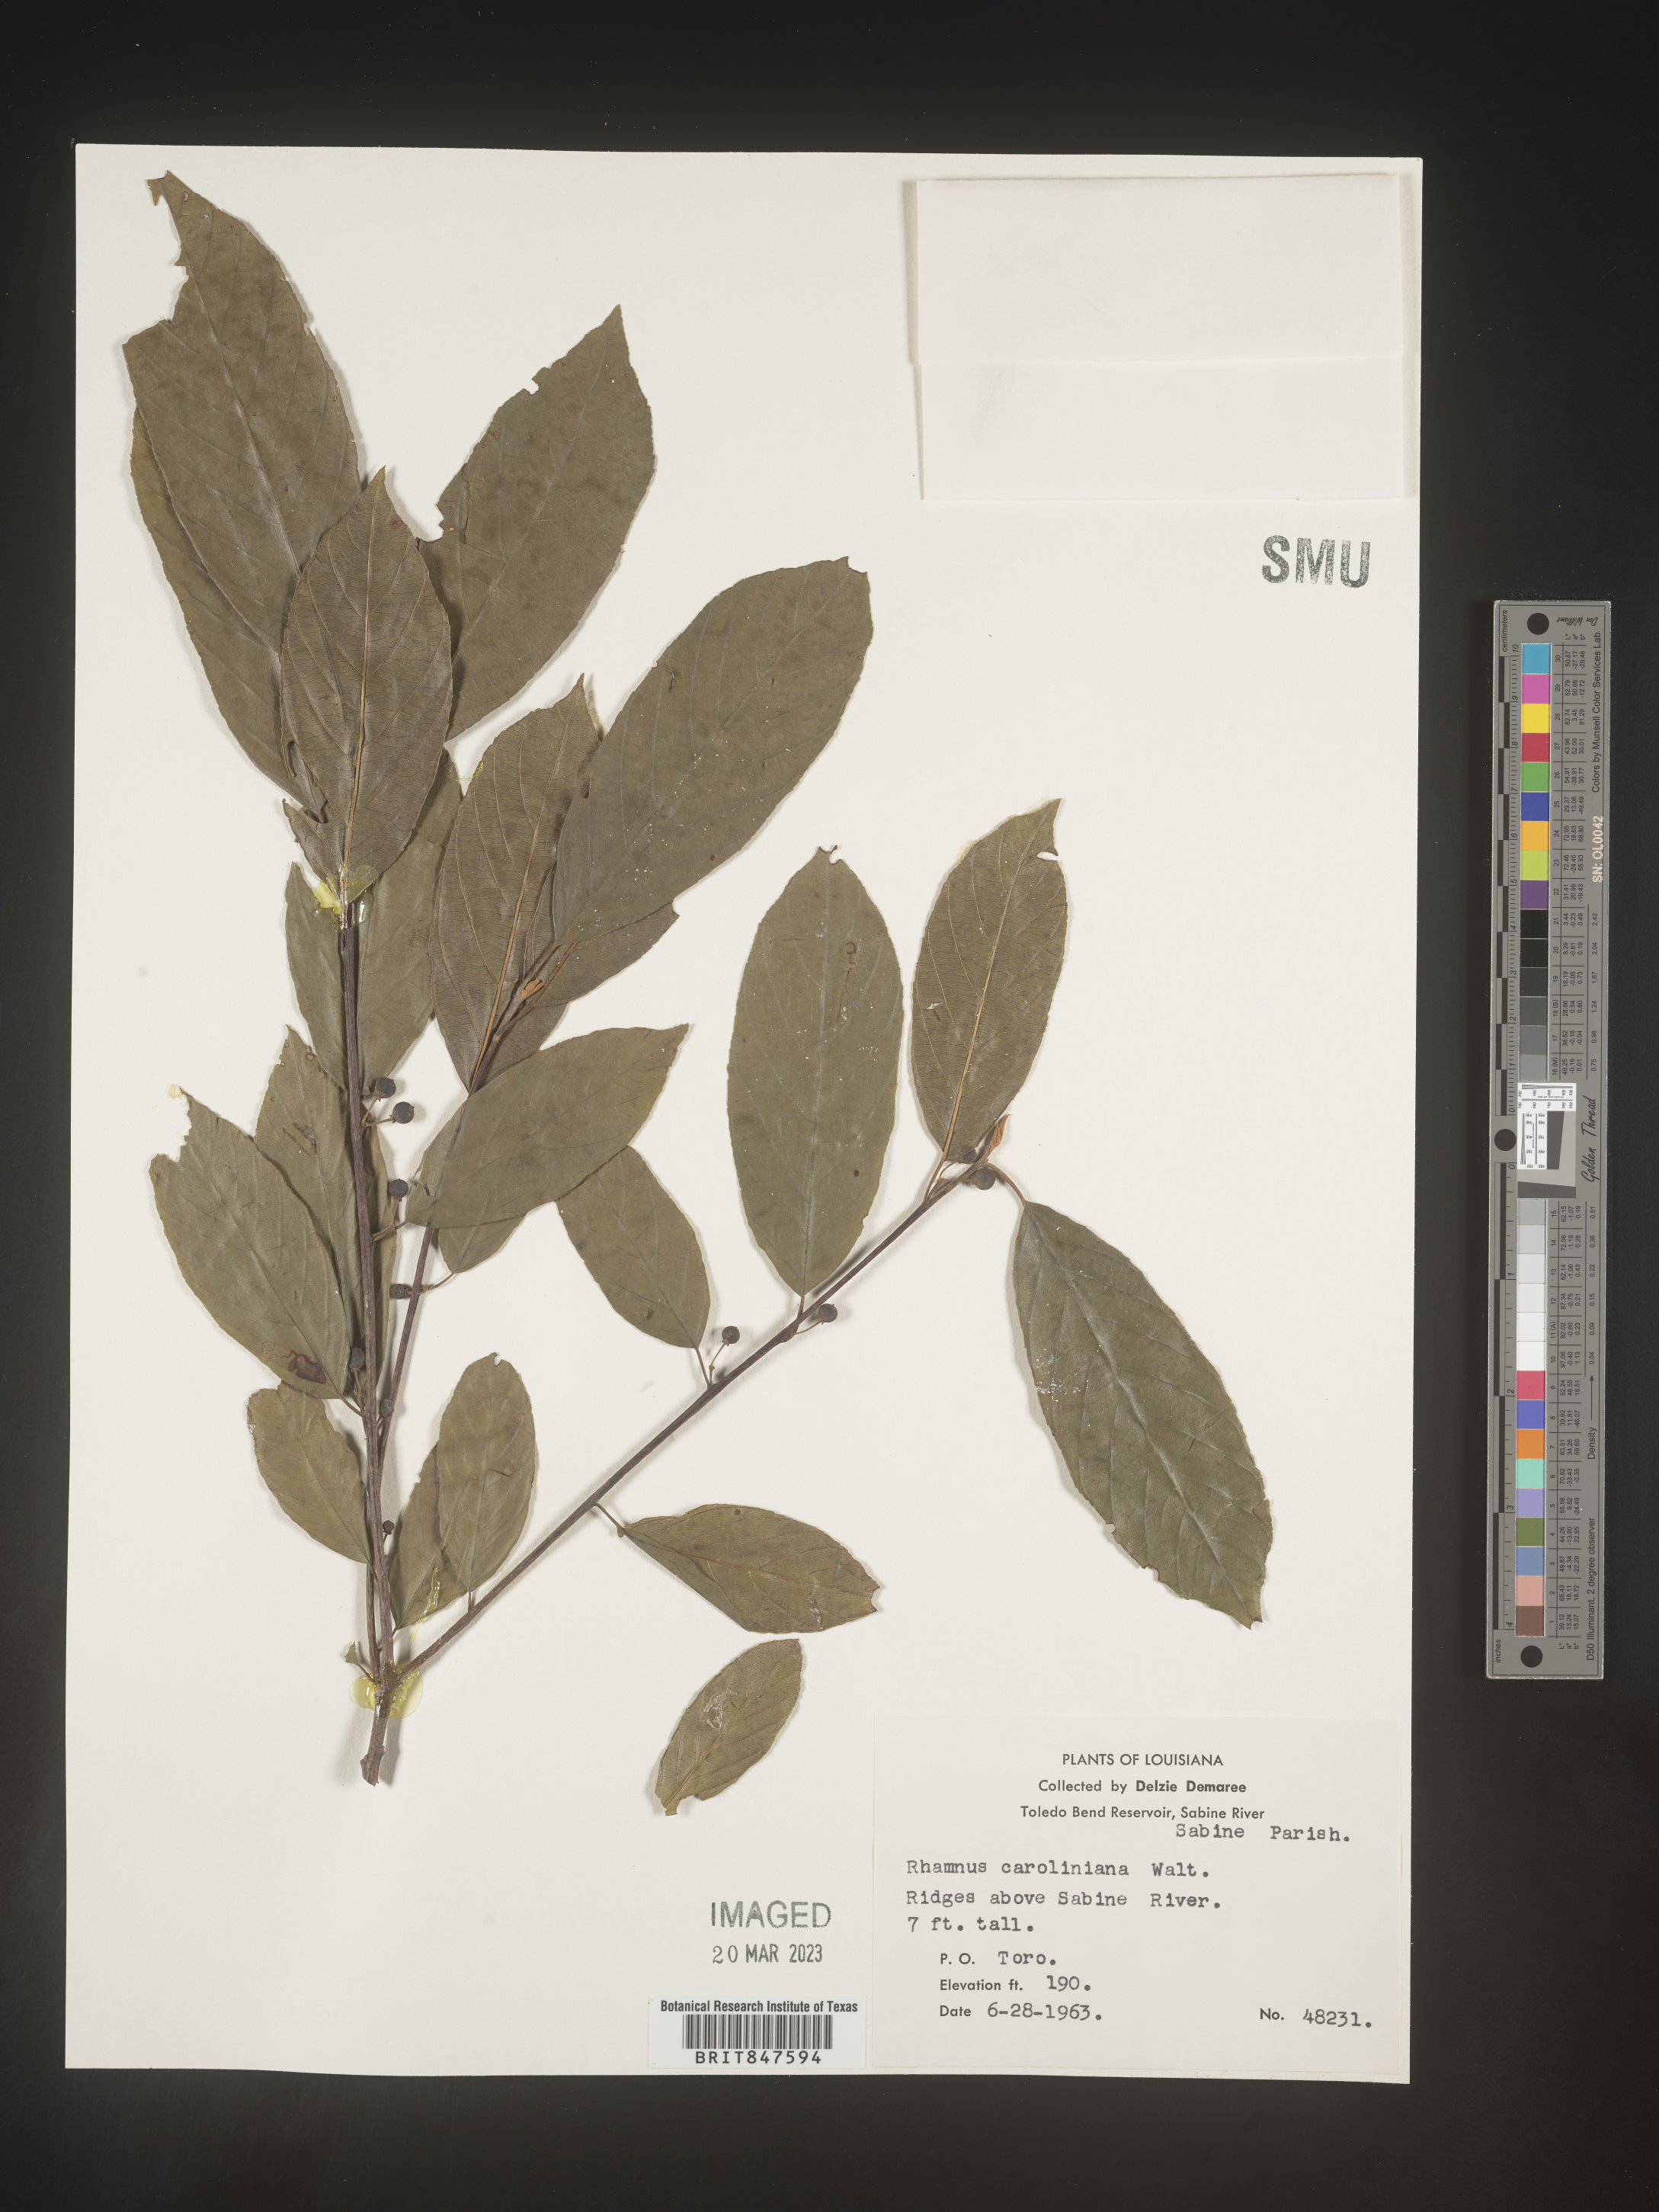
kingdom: Plantae
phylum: Tracheophyta
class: Magnoliopsida
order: Rosales
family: Rhamnaceae
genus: Frangula
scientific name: Frangula caroliniana
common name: Carolina buckthorn
